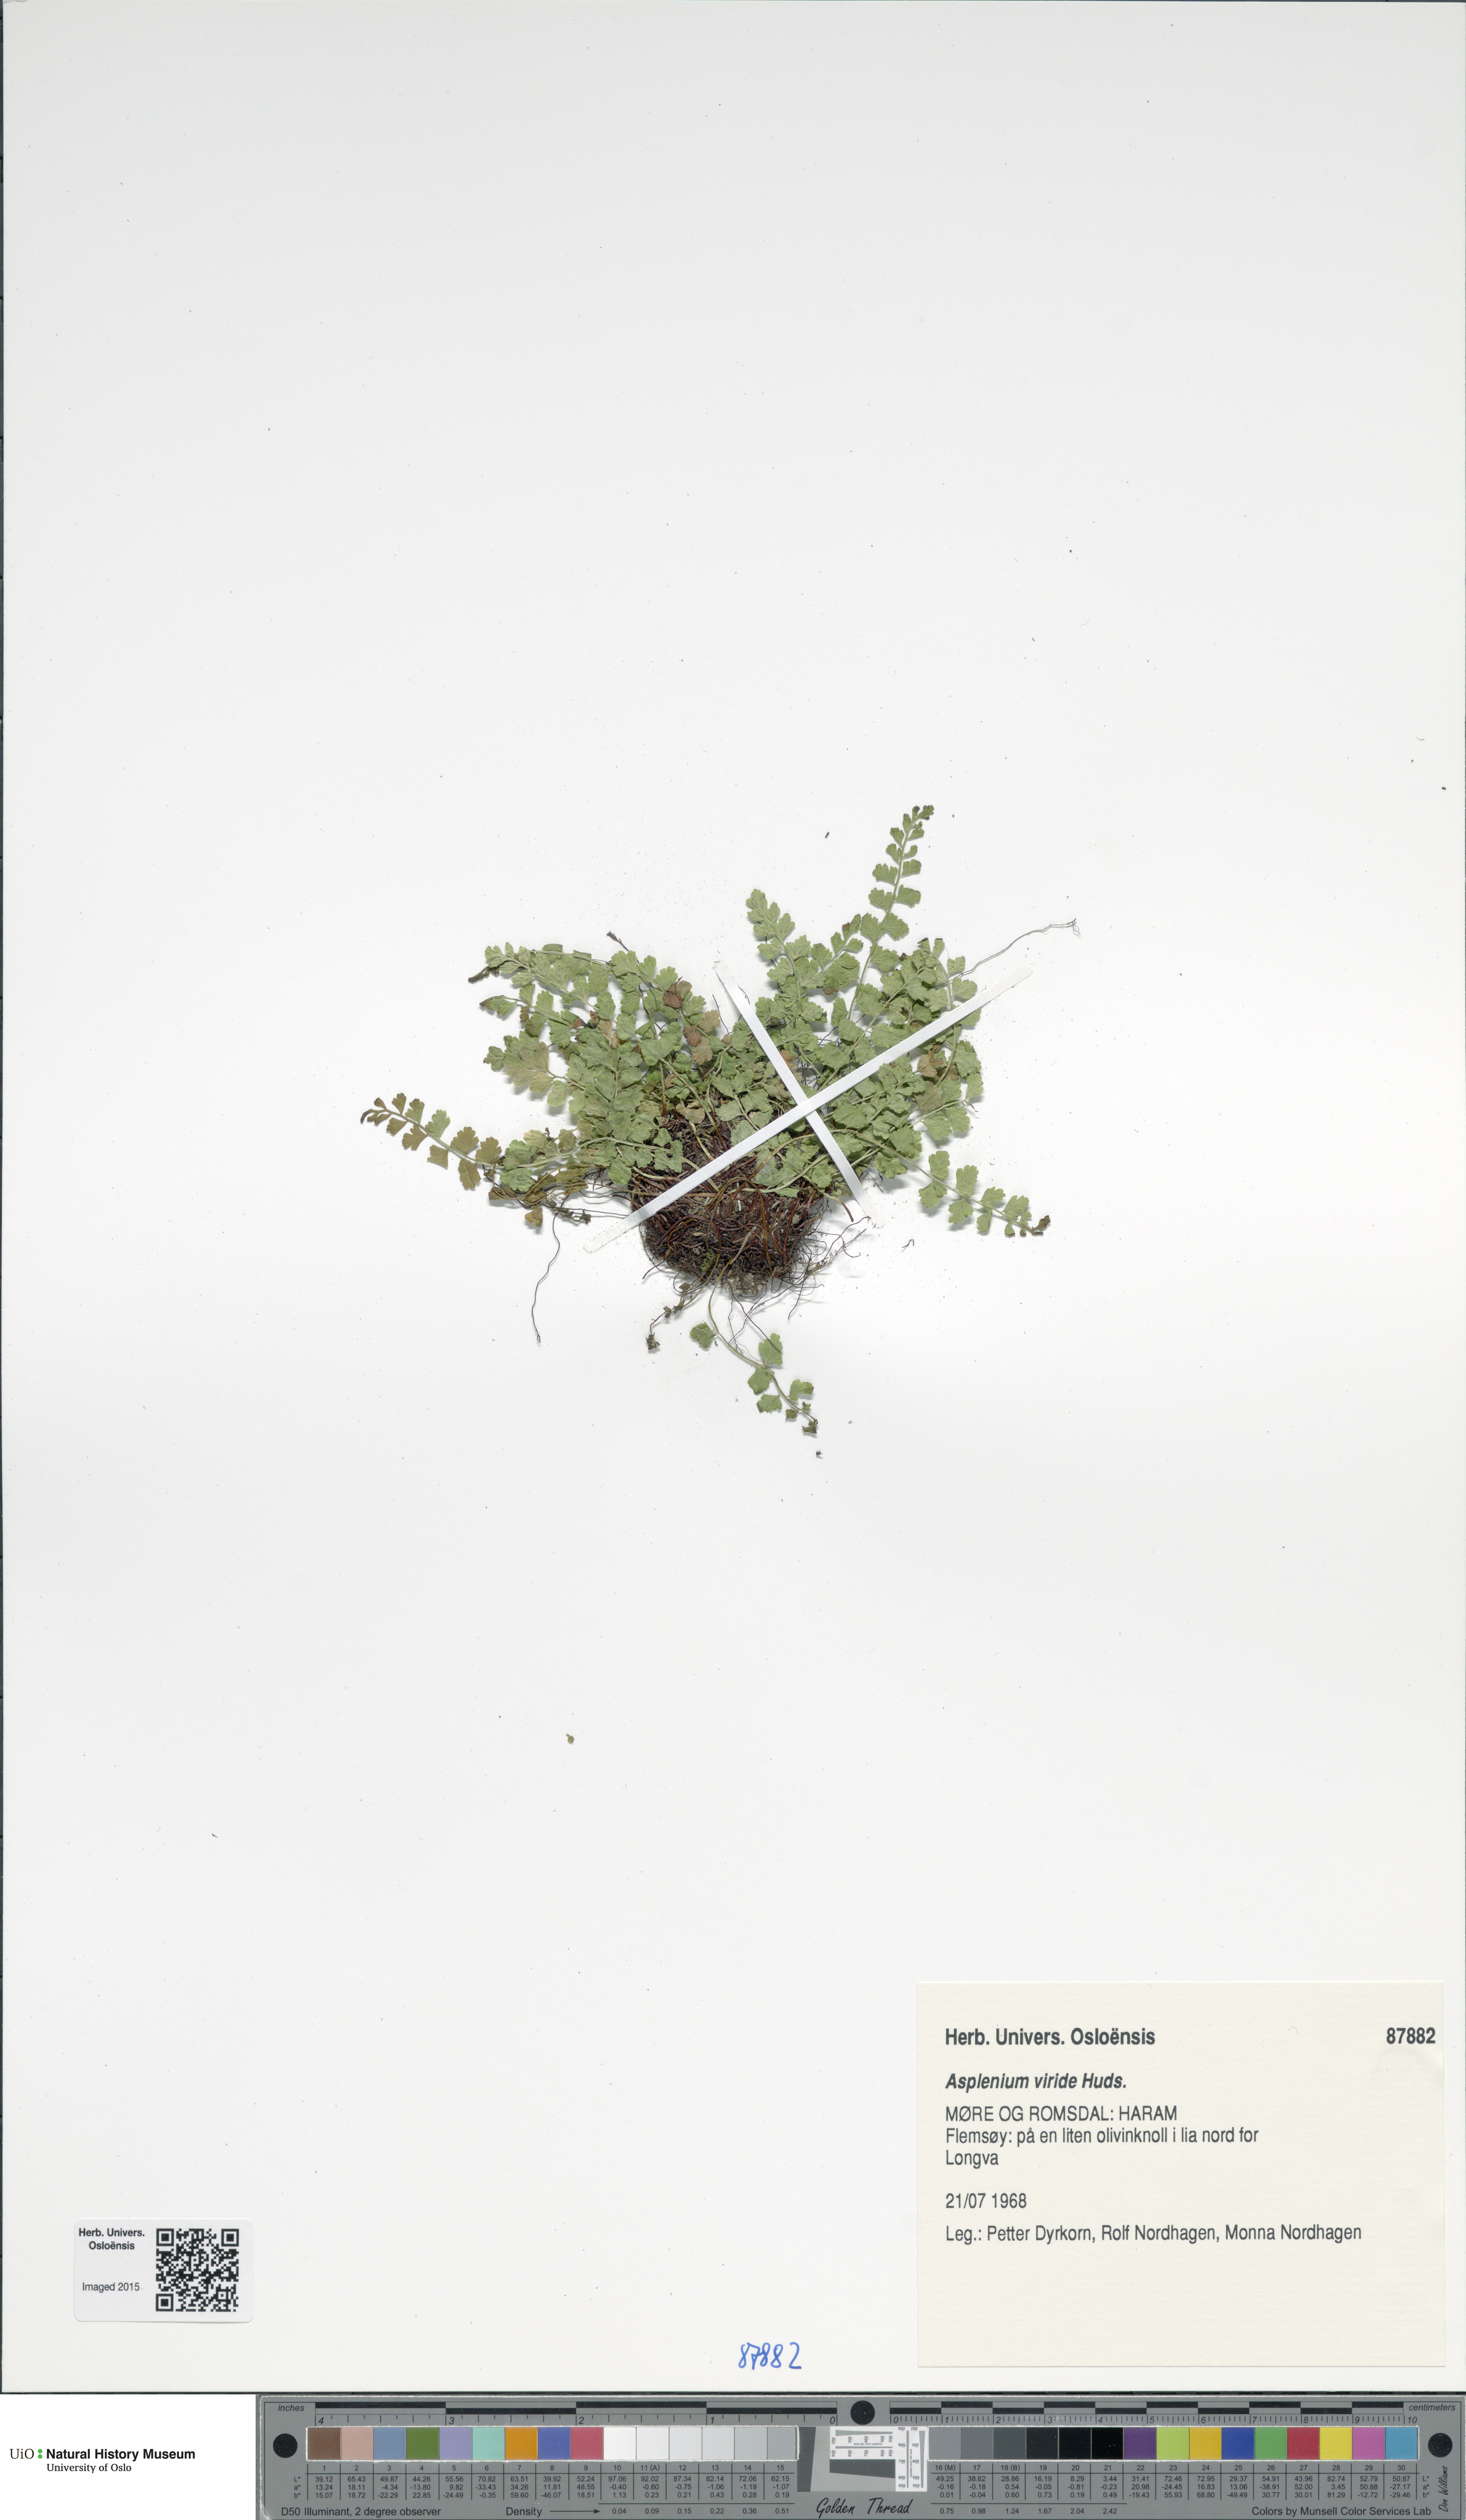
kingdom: Plantae
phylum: Tracheophyta
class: Polypodiopsida
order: Polypodiales
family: Aspleniaceae
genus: Asplenium
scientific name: Asplenium viride
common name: Green spleenwort
